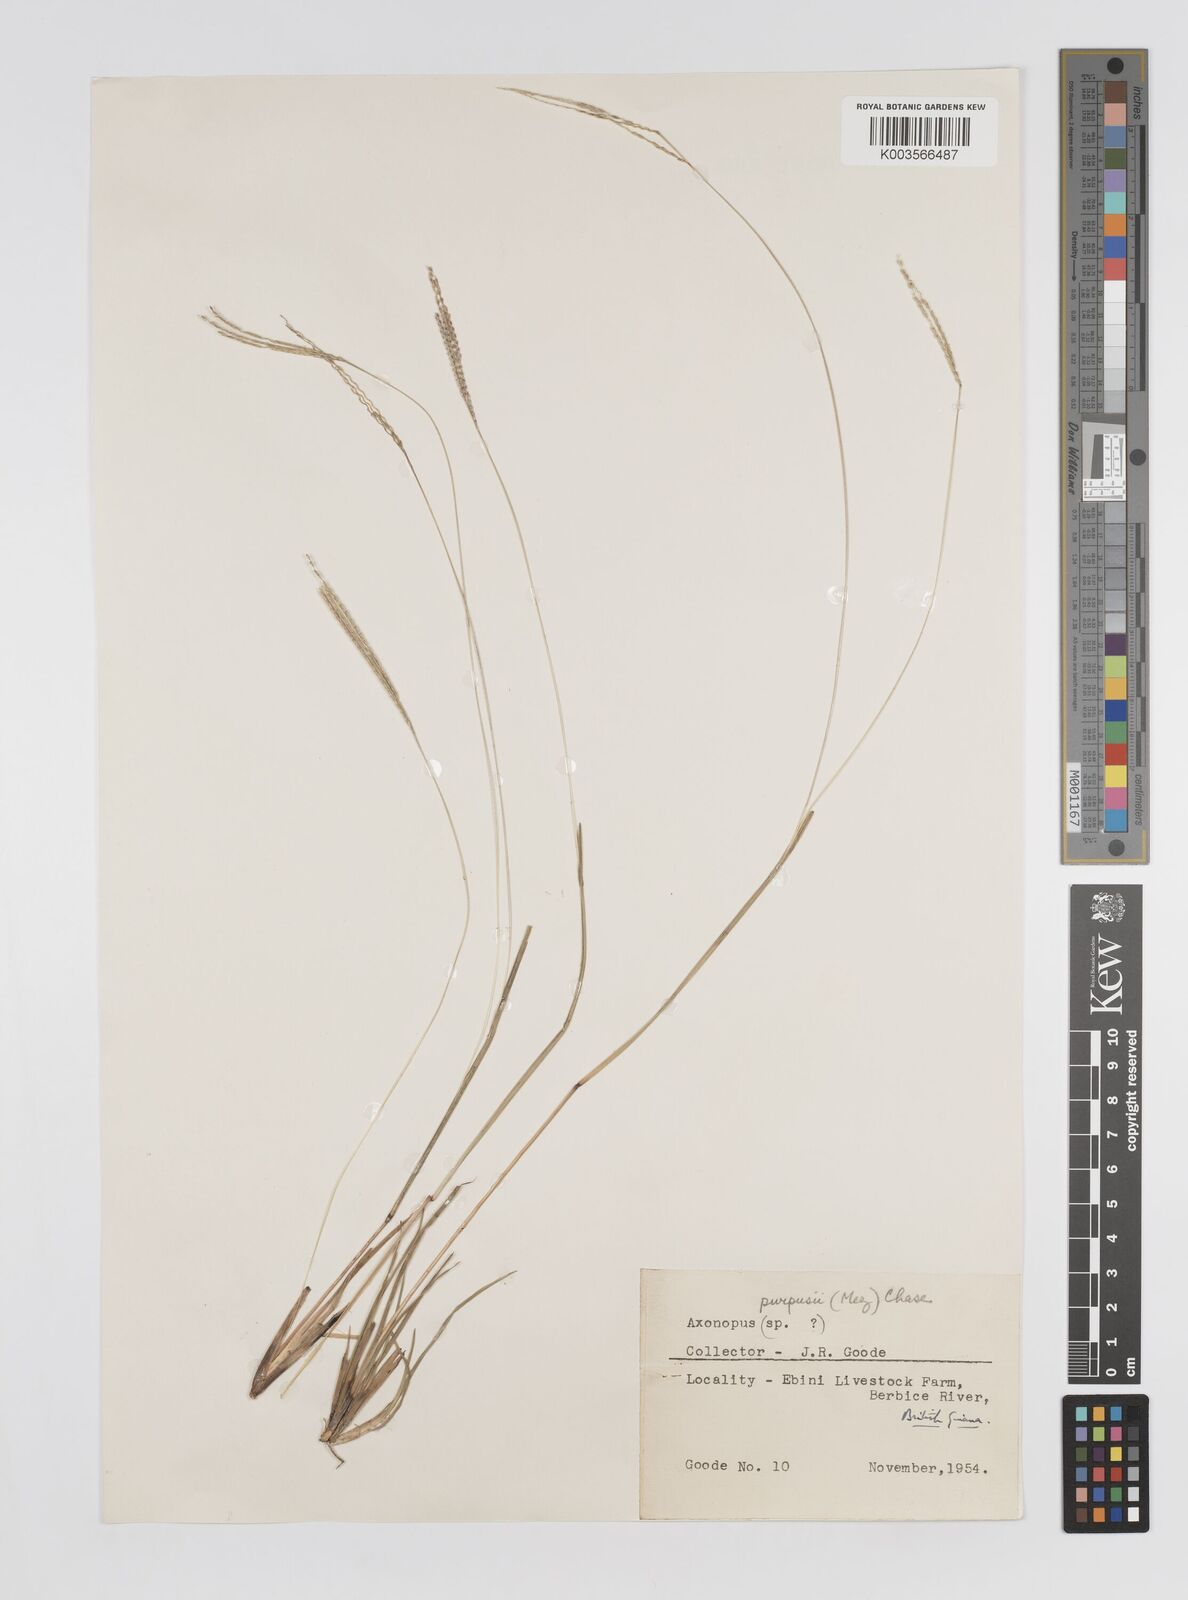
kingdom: Plantae
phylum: Tracheophyta
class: Liliopsida
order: Poales
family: Poaceae
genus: Axonopus
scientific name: Axonopus purpusii
